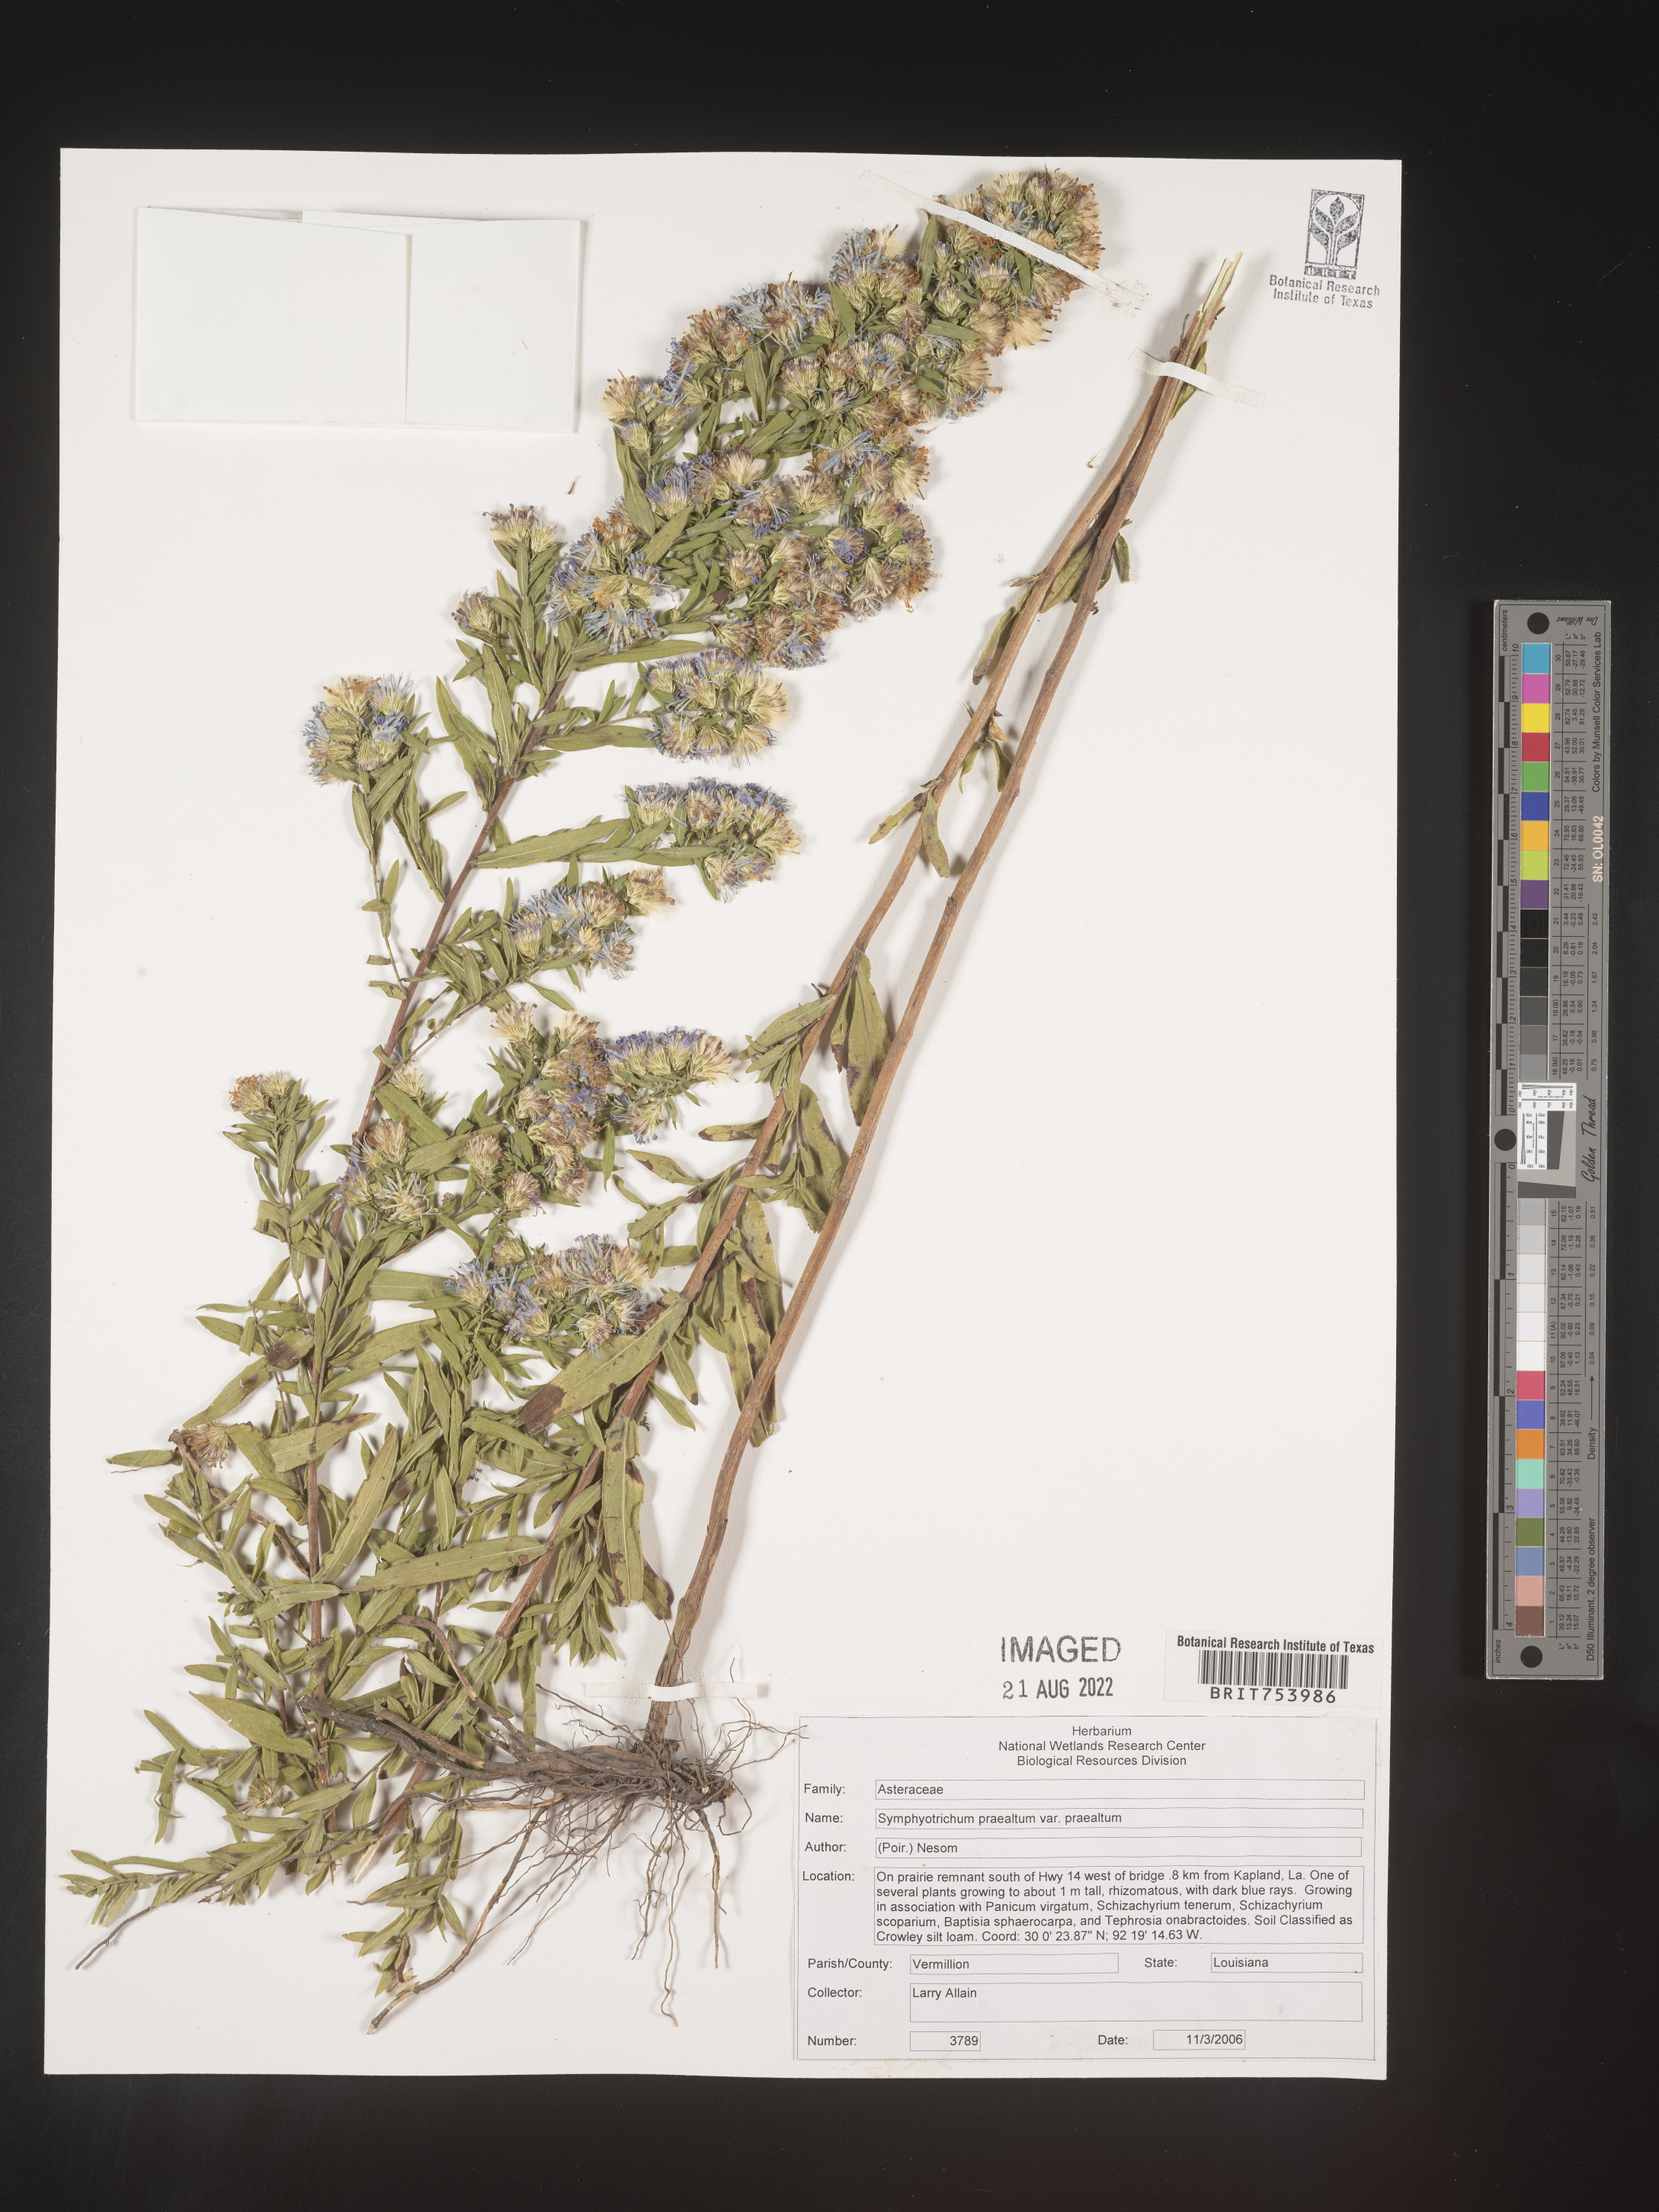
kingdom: Plantae
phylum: Tracheophyta
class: Magnoliopsida
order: Asterales
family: Asteraceae
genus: Symphyotrichum
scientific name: Symphyotrichum praealtum
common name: Willow aster
